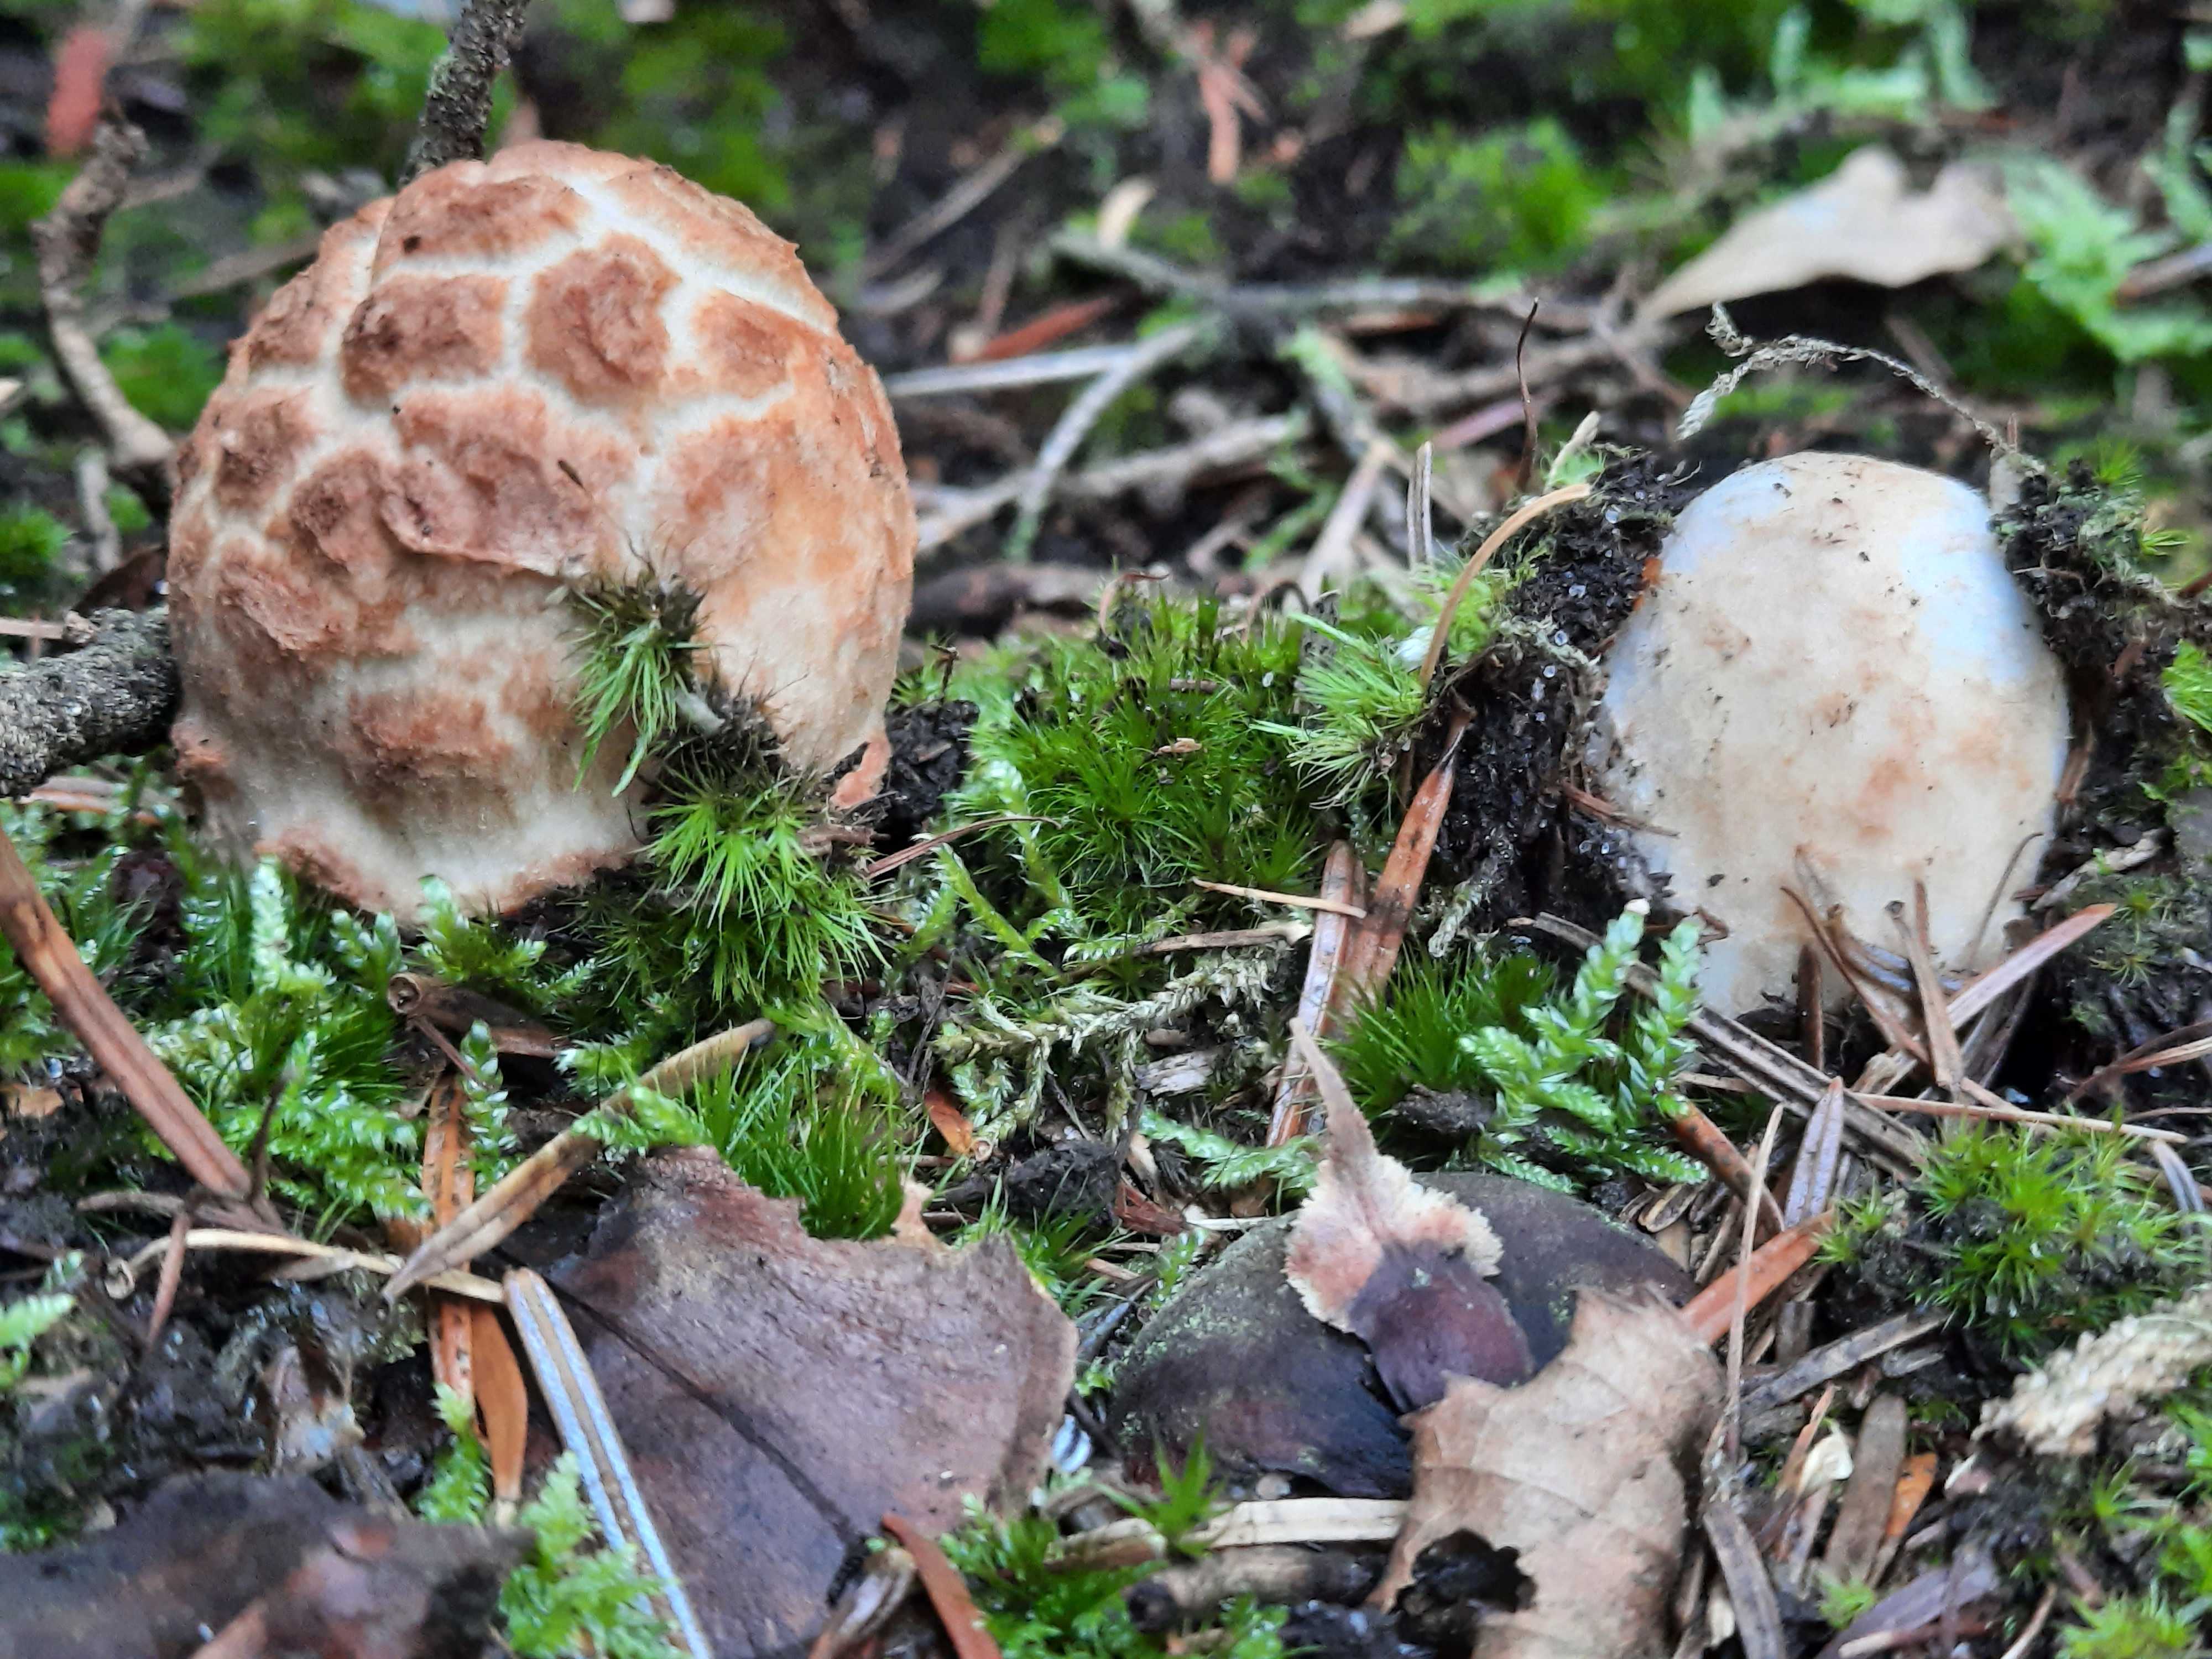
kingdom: Fungi
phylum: Basidiomycota
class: Agaricomycetes
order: Agaricales
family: Amanitaceae
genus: Amanita
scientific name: Amanita fulva
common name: brun kam-fluesvamp
